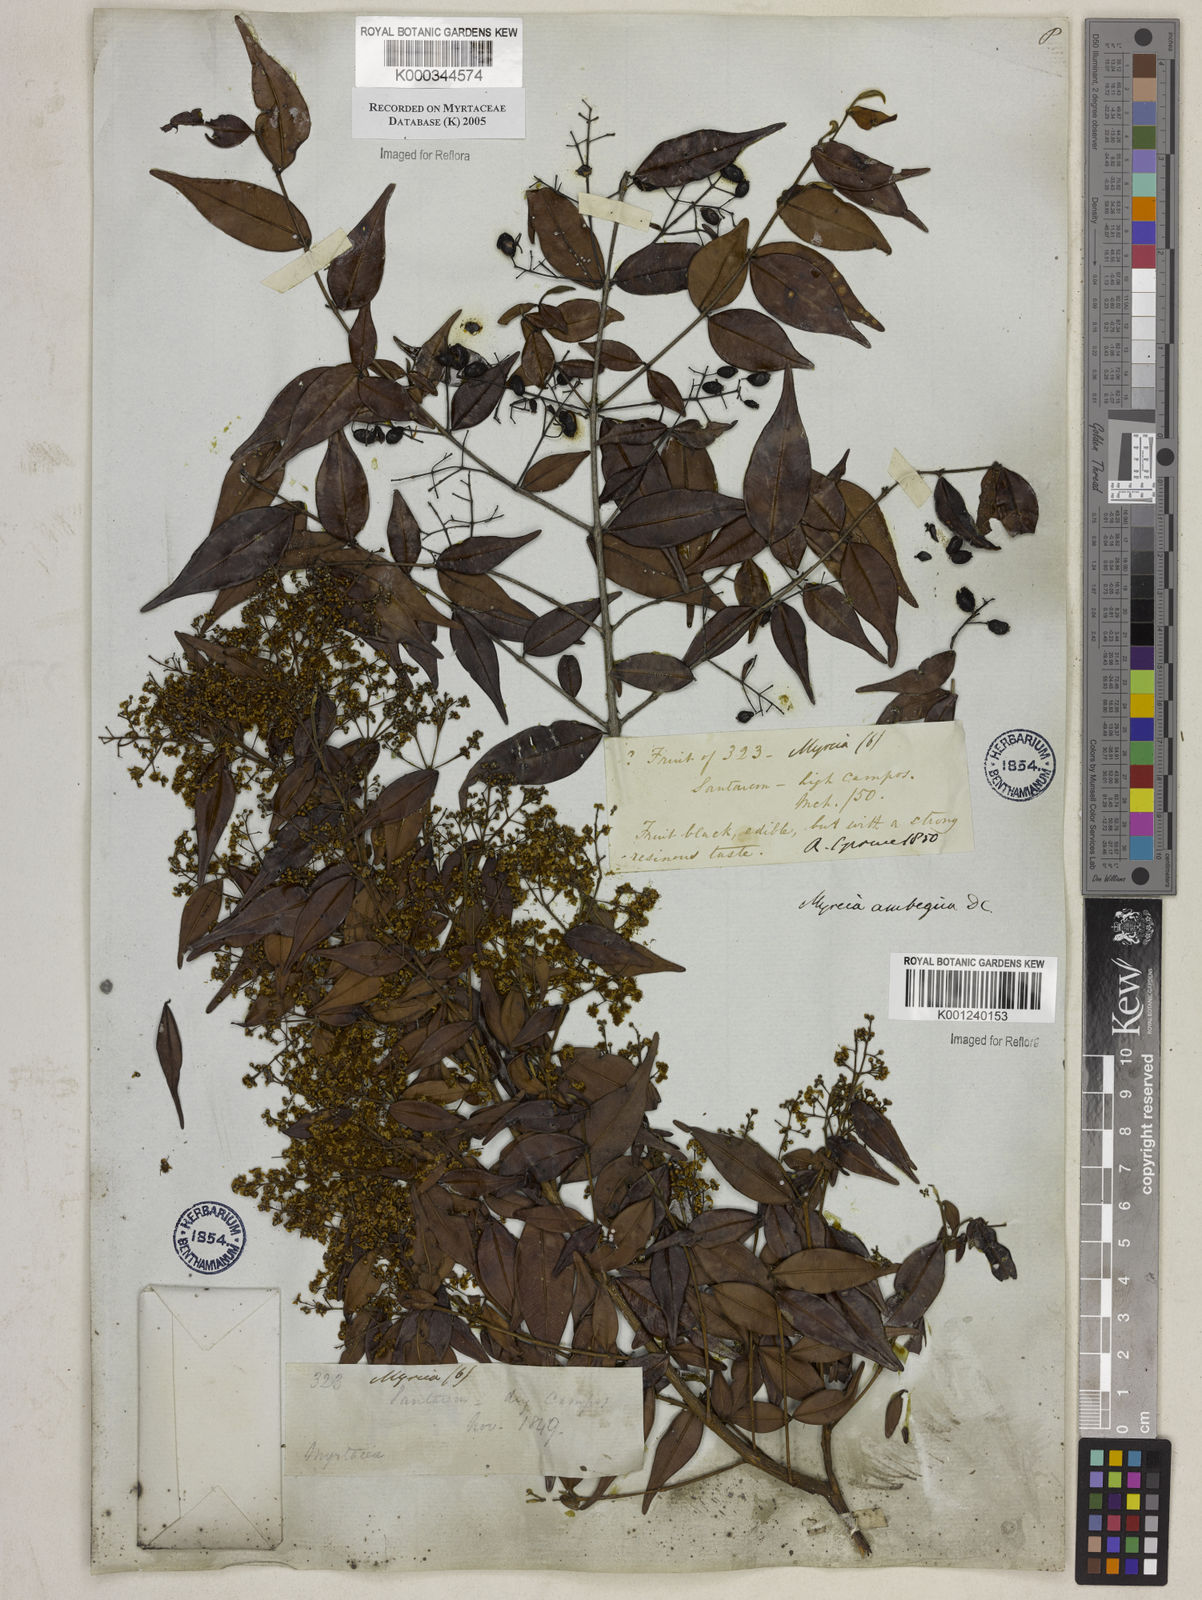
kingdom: Plantae
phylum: Tracheophyta
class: Magnoliopsida
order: Myrtales
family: Myrtaceae
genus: Myrcia
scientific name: Myrcia sylvatica
